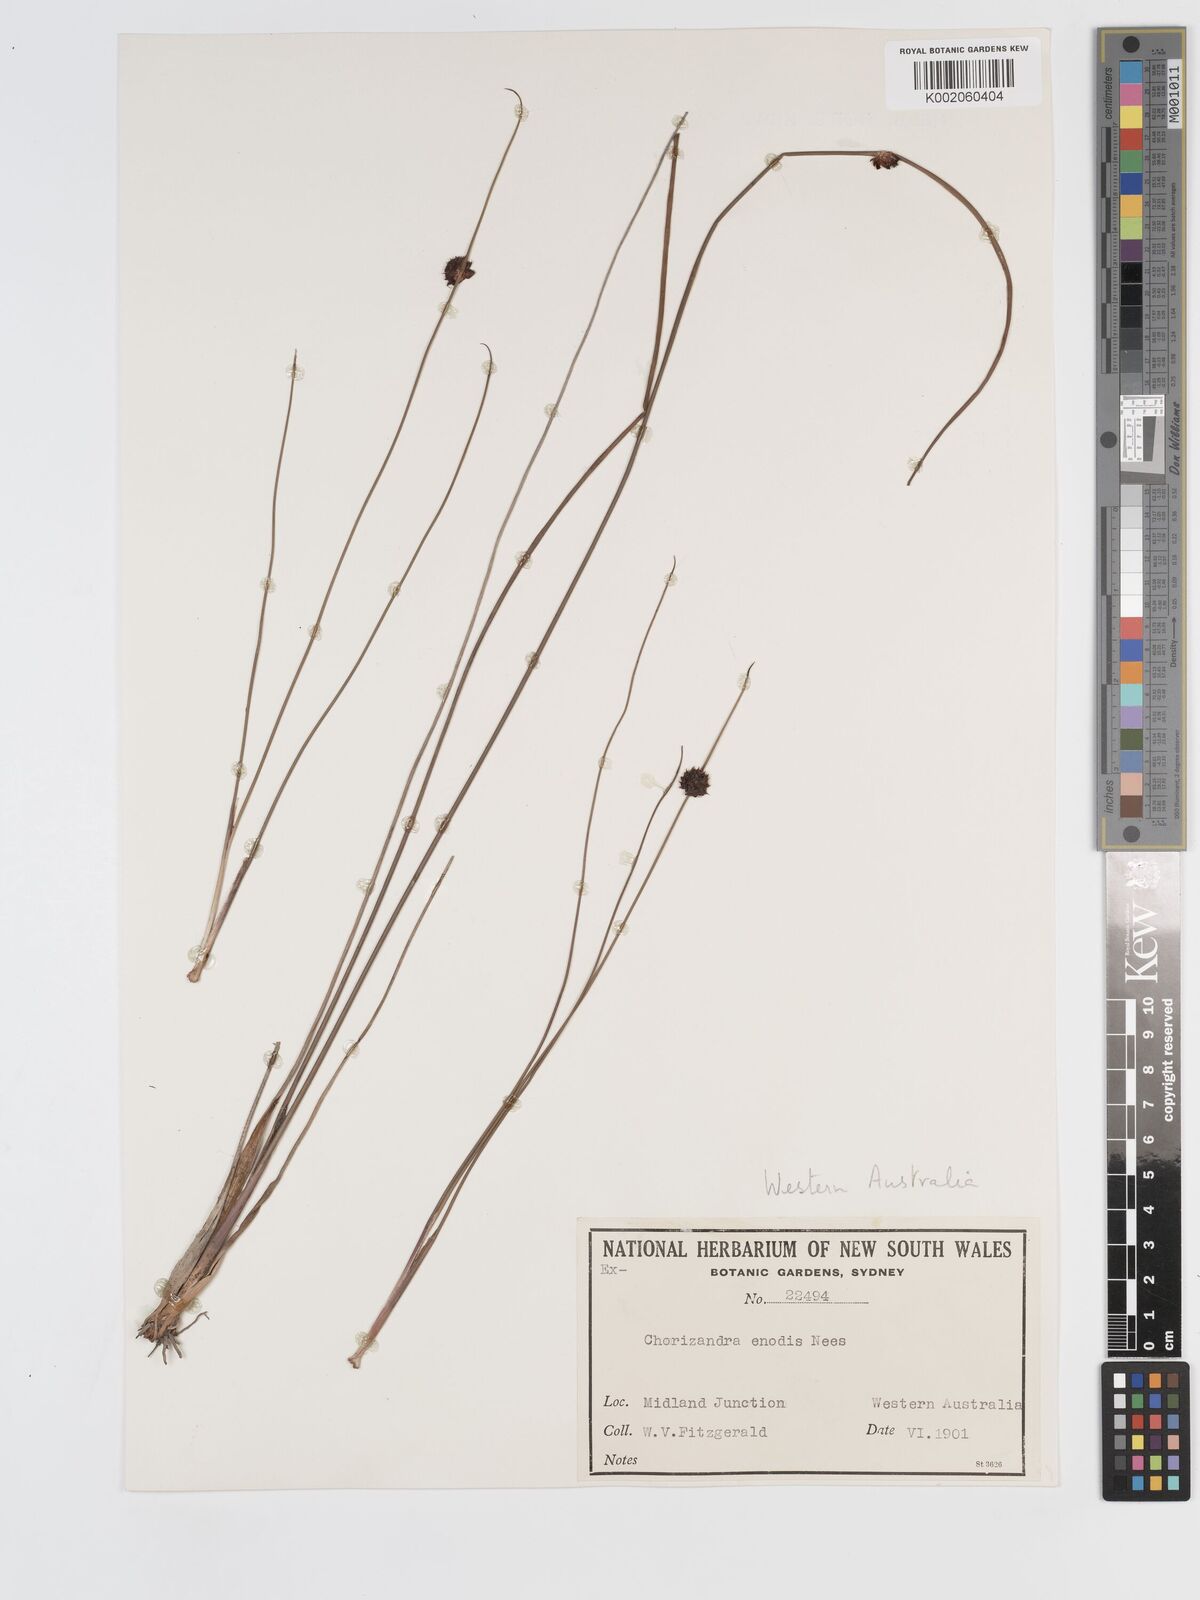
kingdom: Plantae
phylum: Tracheophyta
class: Liliopsida
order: Poales
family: Cyperaceae
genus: Chorizandra
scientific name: Chorizandra enodis
